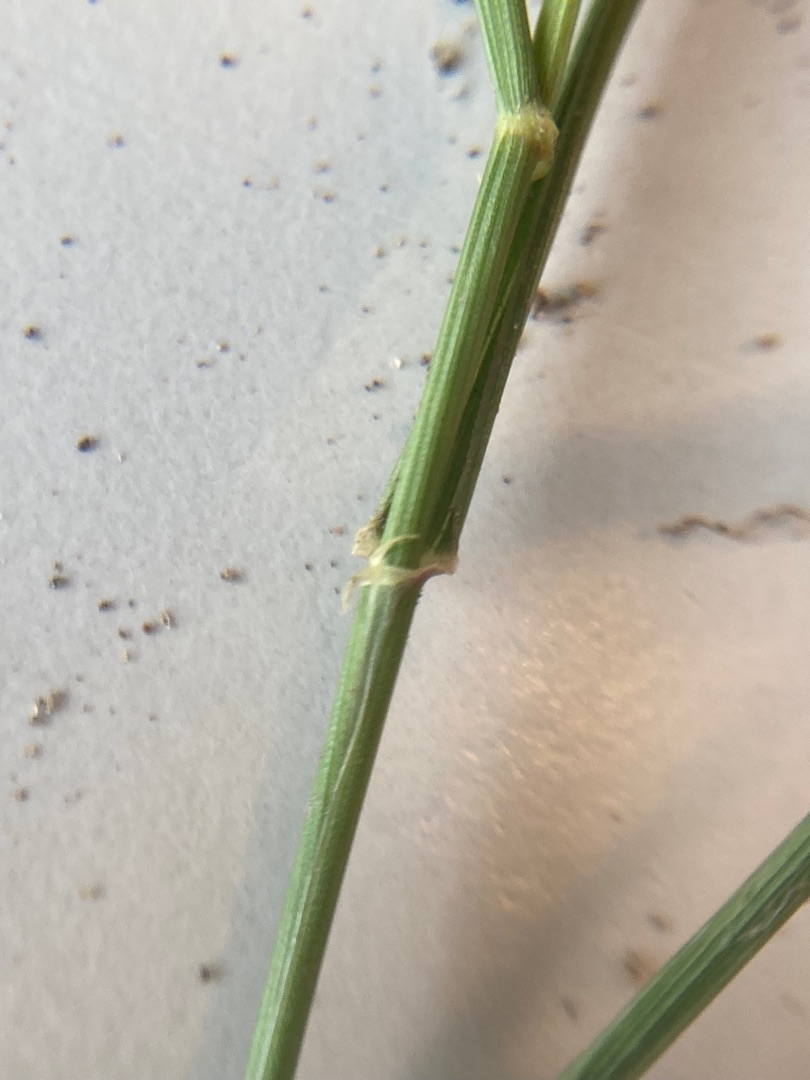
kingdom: Plantae
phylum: Tracheophyta
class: Liliopsida
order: Poales
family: Poaceae
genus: Elymus
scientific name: Elymus repens
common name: Almindelig kvik
